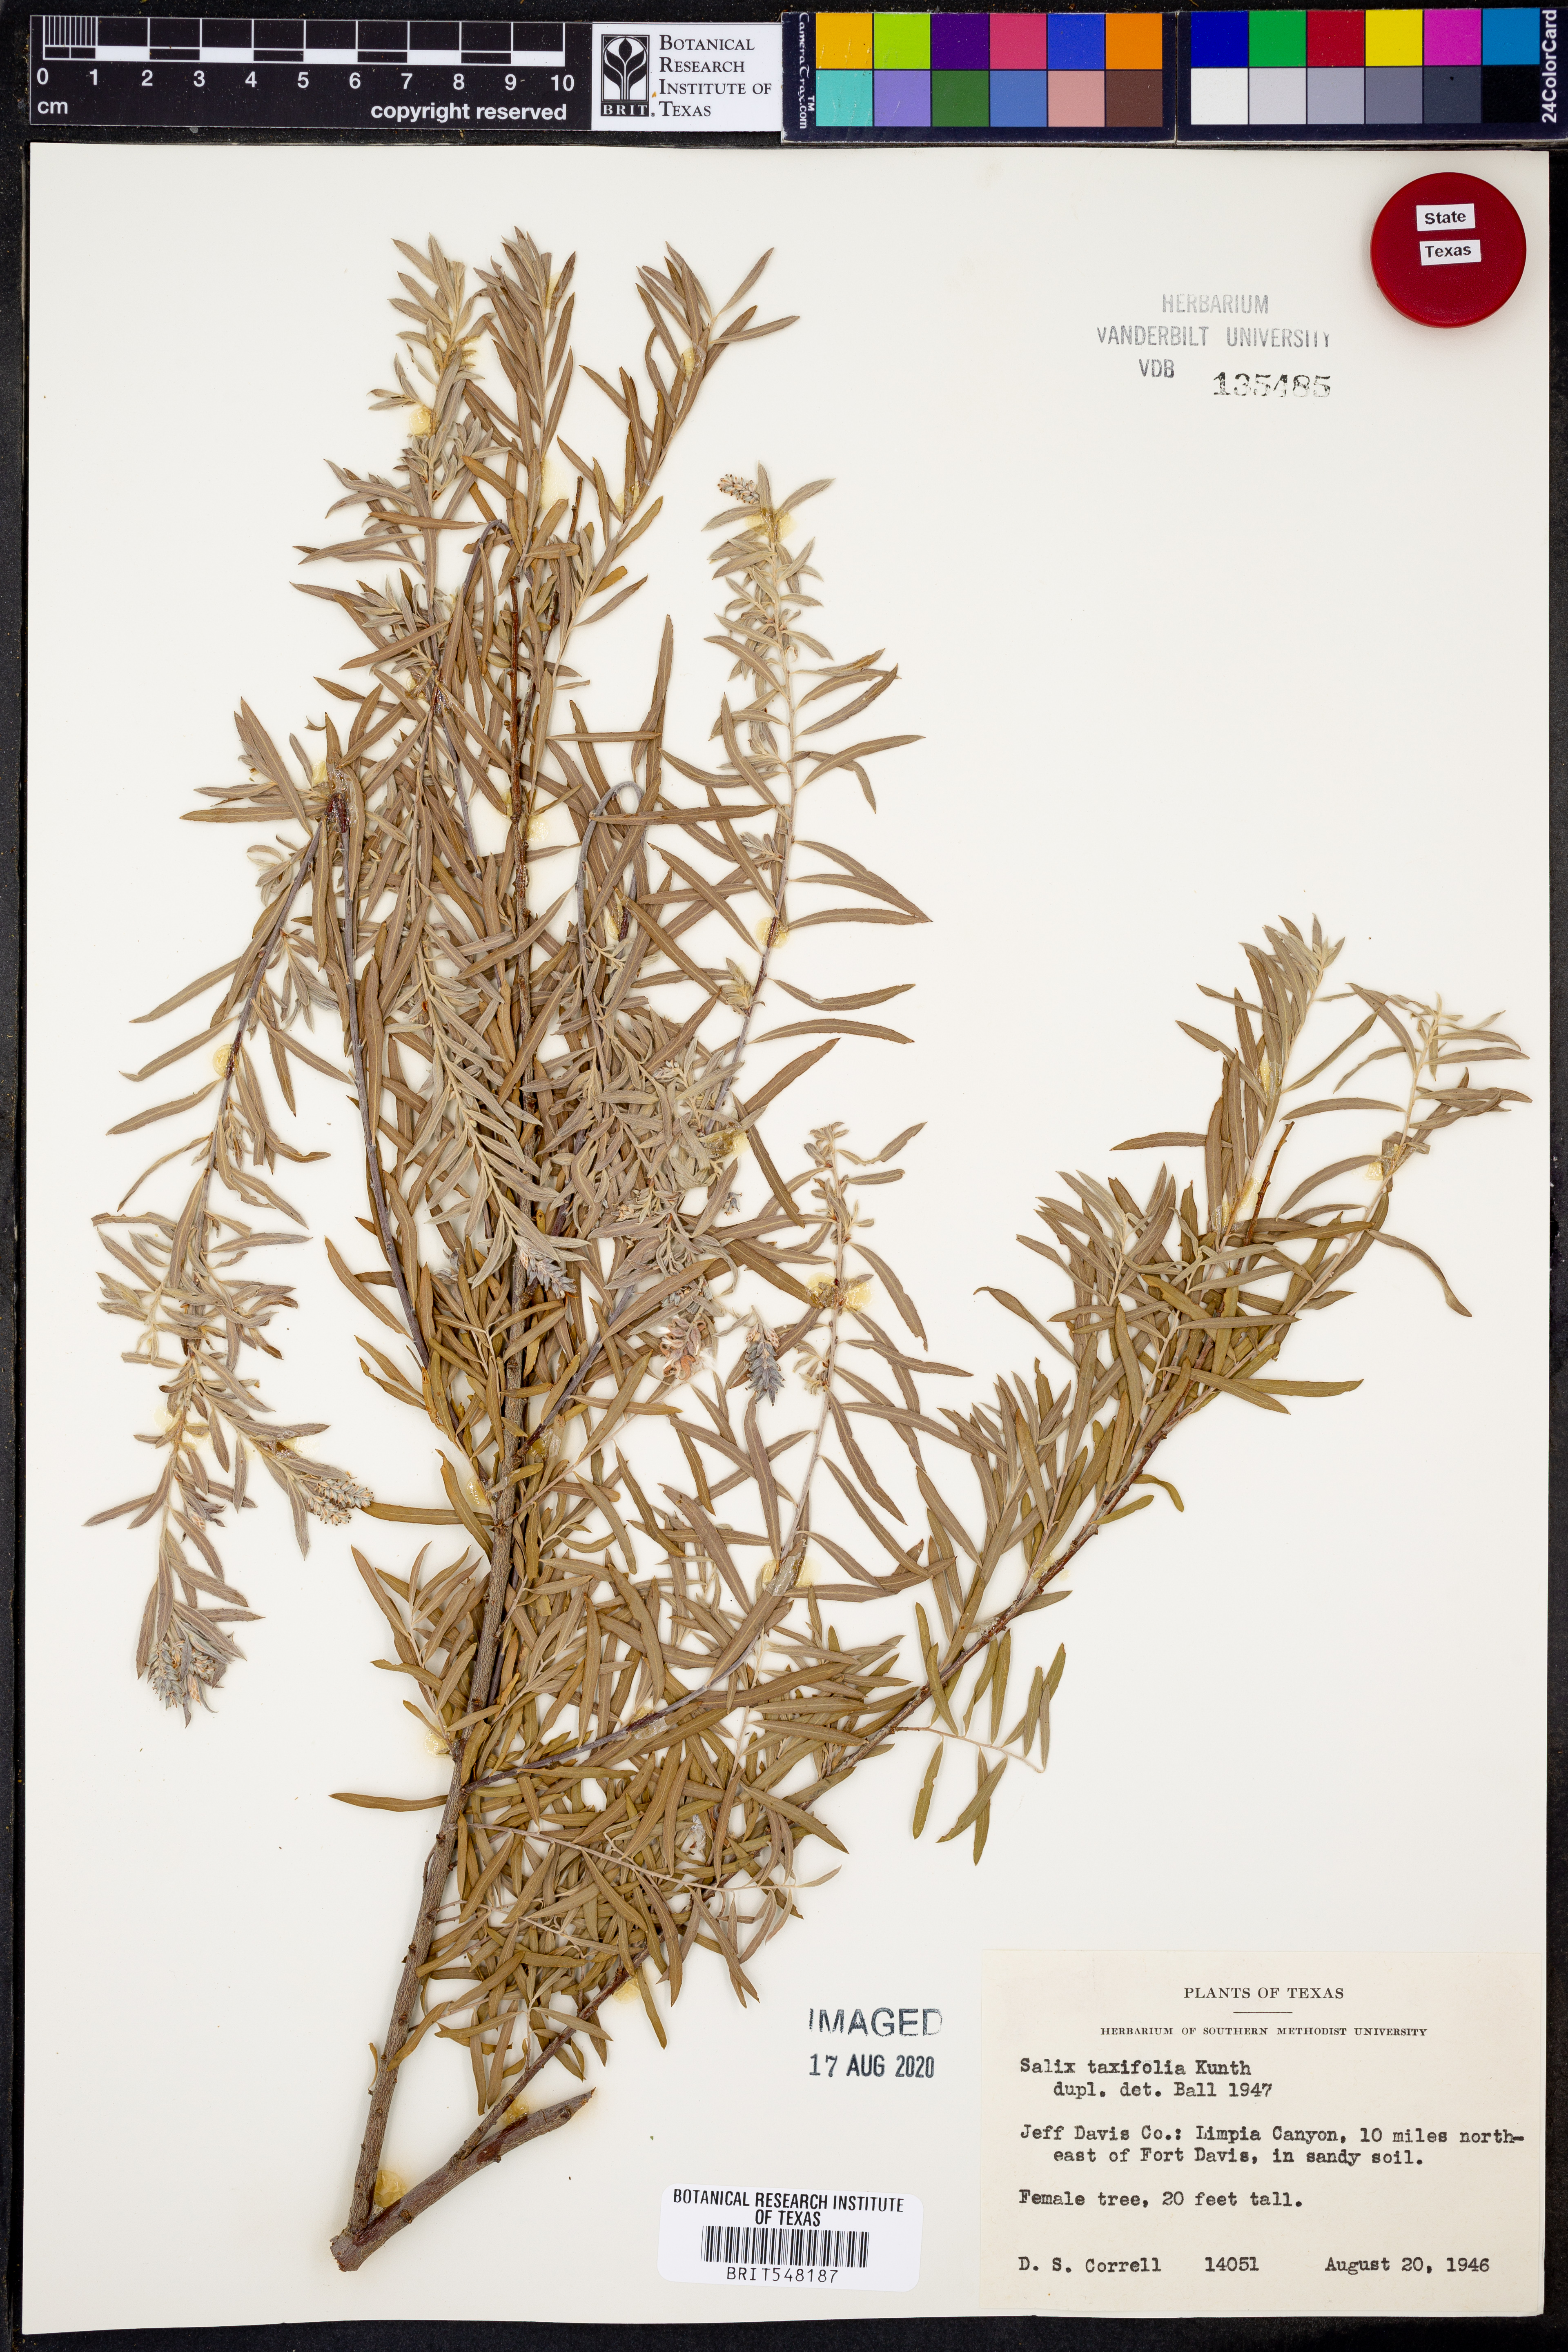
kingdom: Plantae
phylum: Tracheophyta
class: Magnoliopsida
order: Malpighiales
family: Salicaceae
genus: Salix
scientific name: Salix taxifolia
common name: Yew-leaf willow
